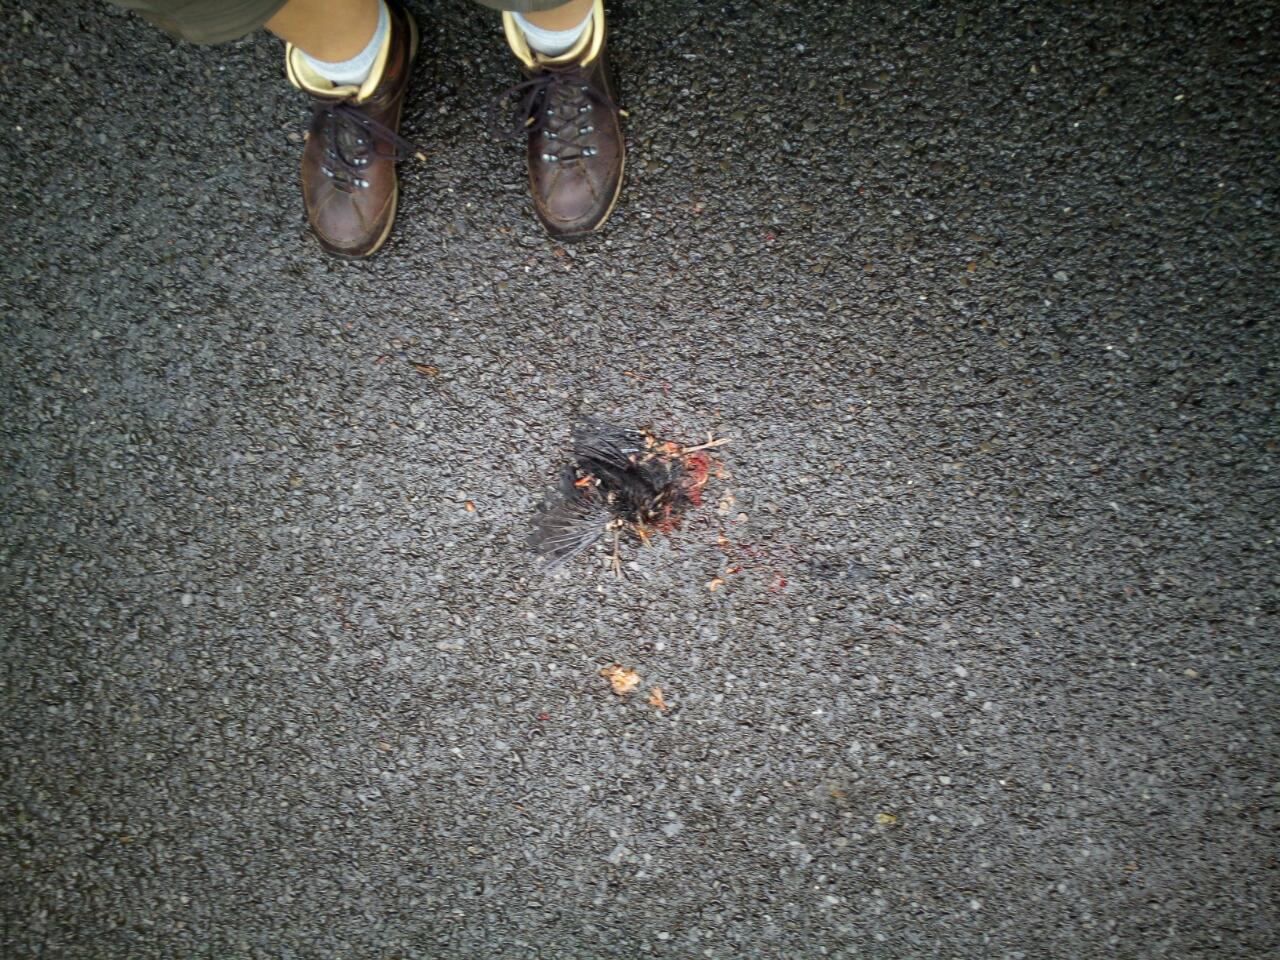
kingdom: Animalia
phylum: Chordata
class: Aves
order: Passeriformes
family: Turdidae
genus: Turdus
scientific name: Turdus merula
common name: Common blackbird
